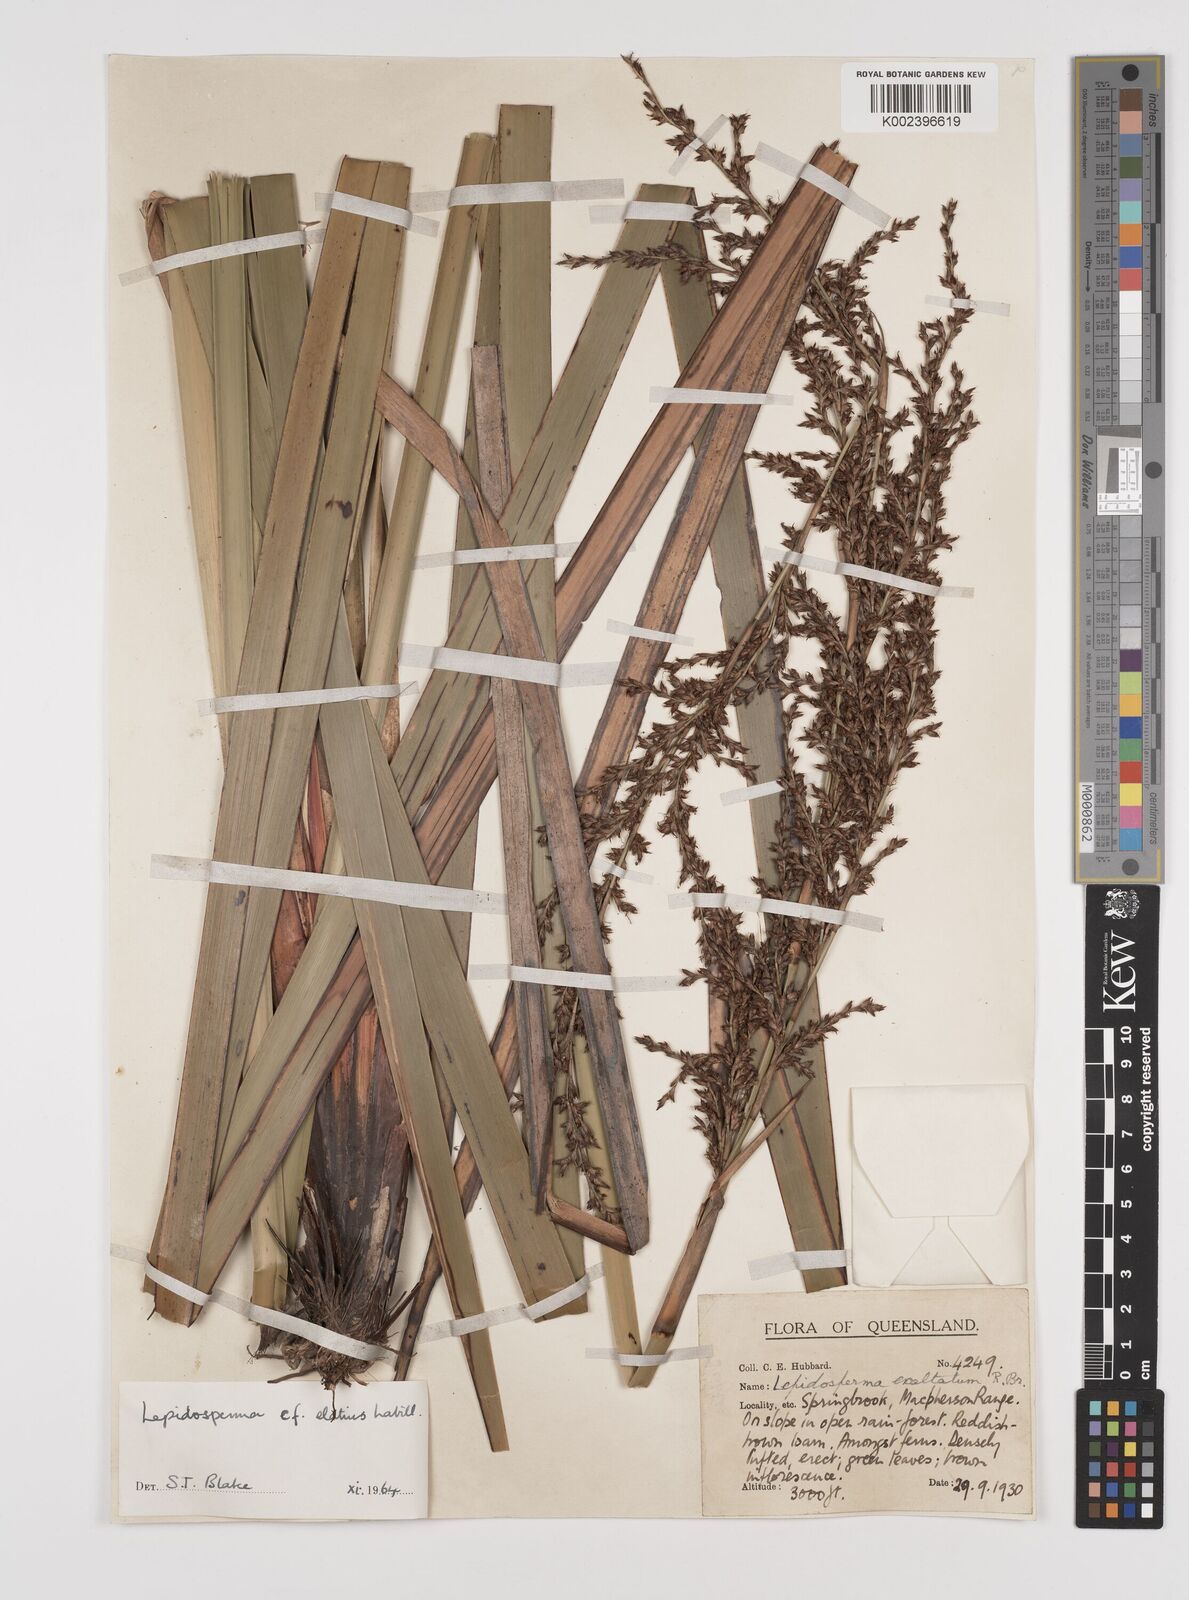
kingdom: Plantae
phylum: Tracheophyta
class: Liliopsida
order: Poales
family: Cyperaceae
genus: Lepidosperma
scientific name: Lepidosperma elatius
